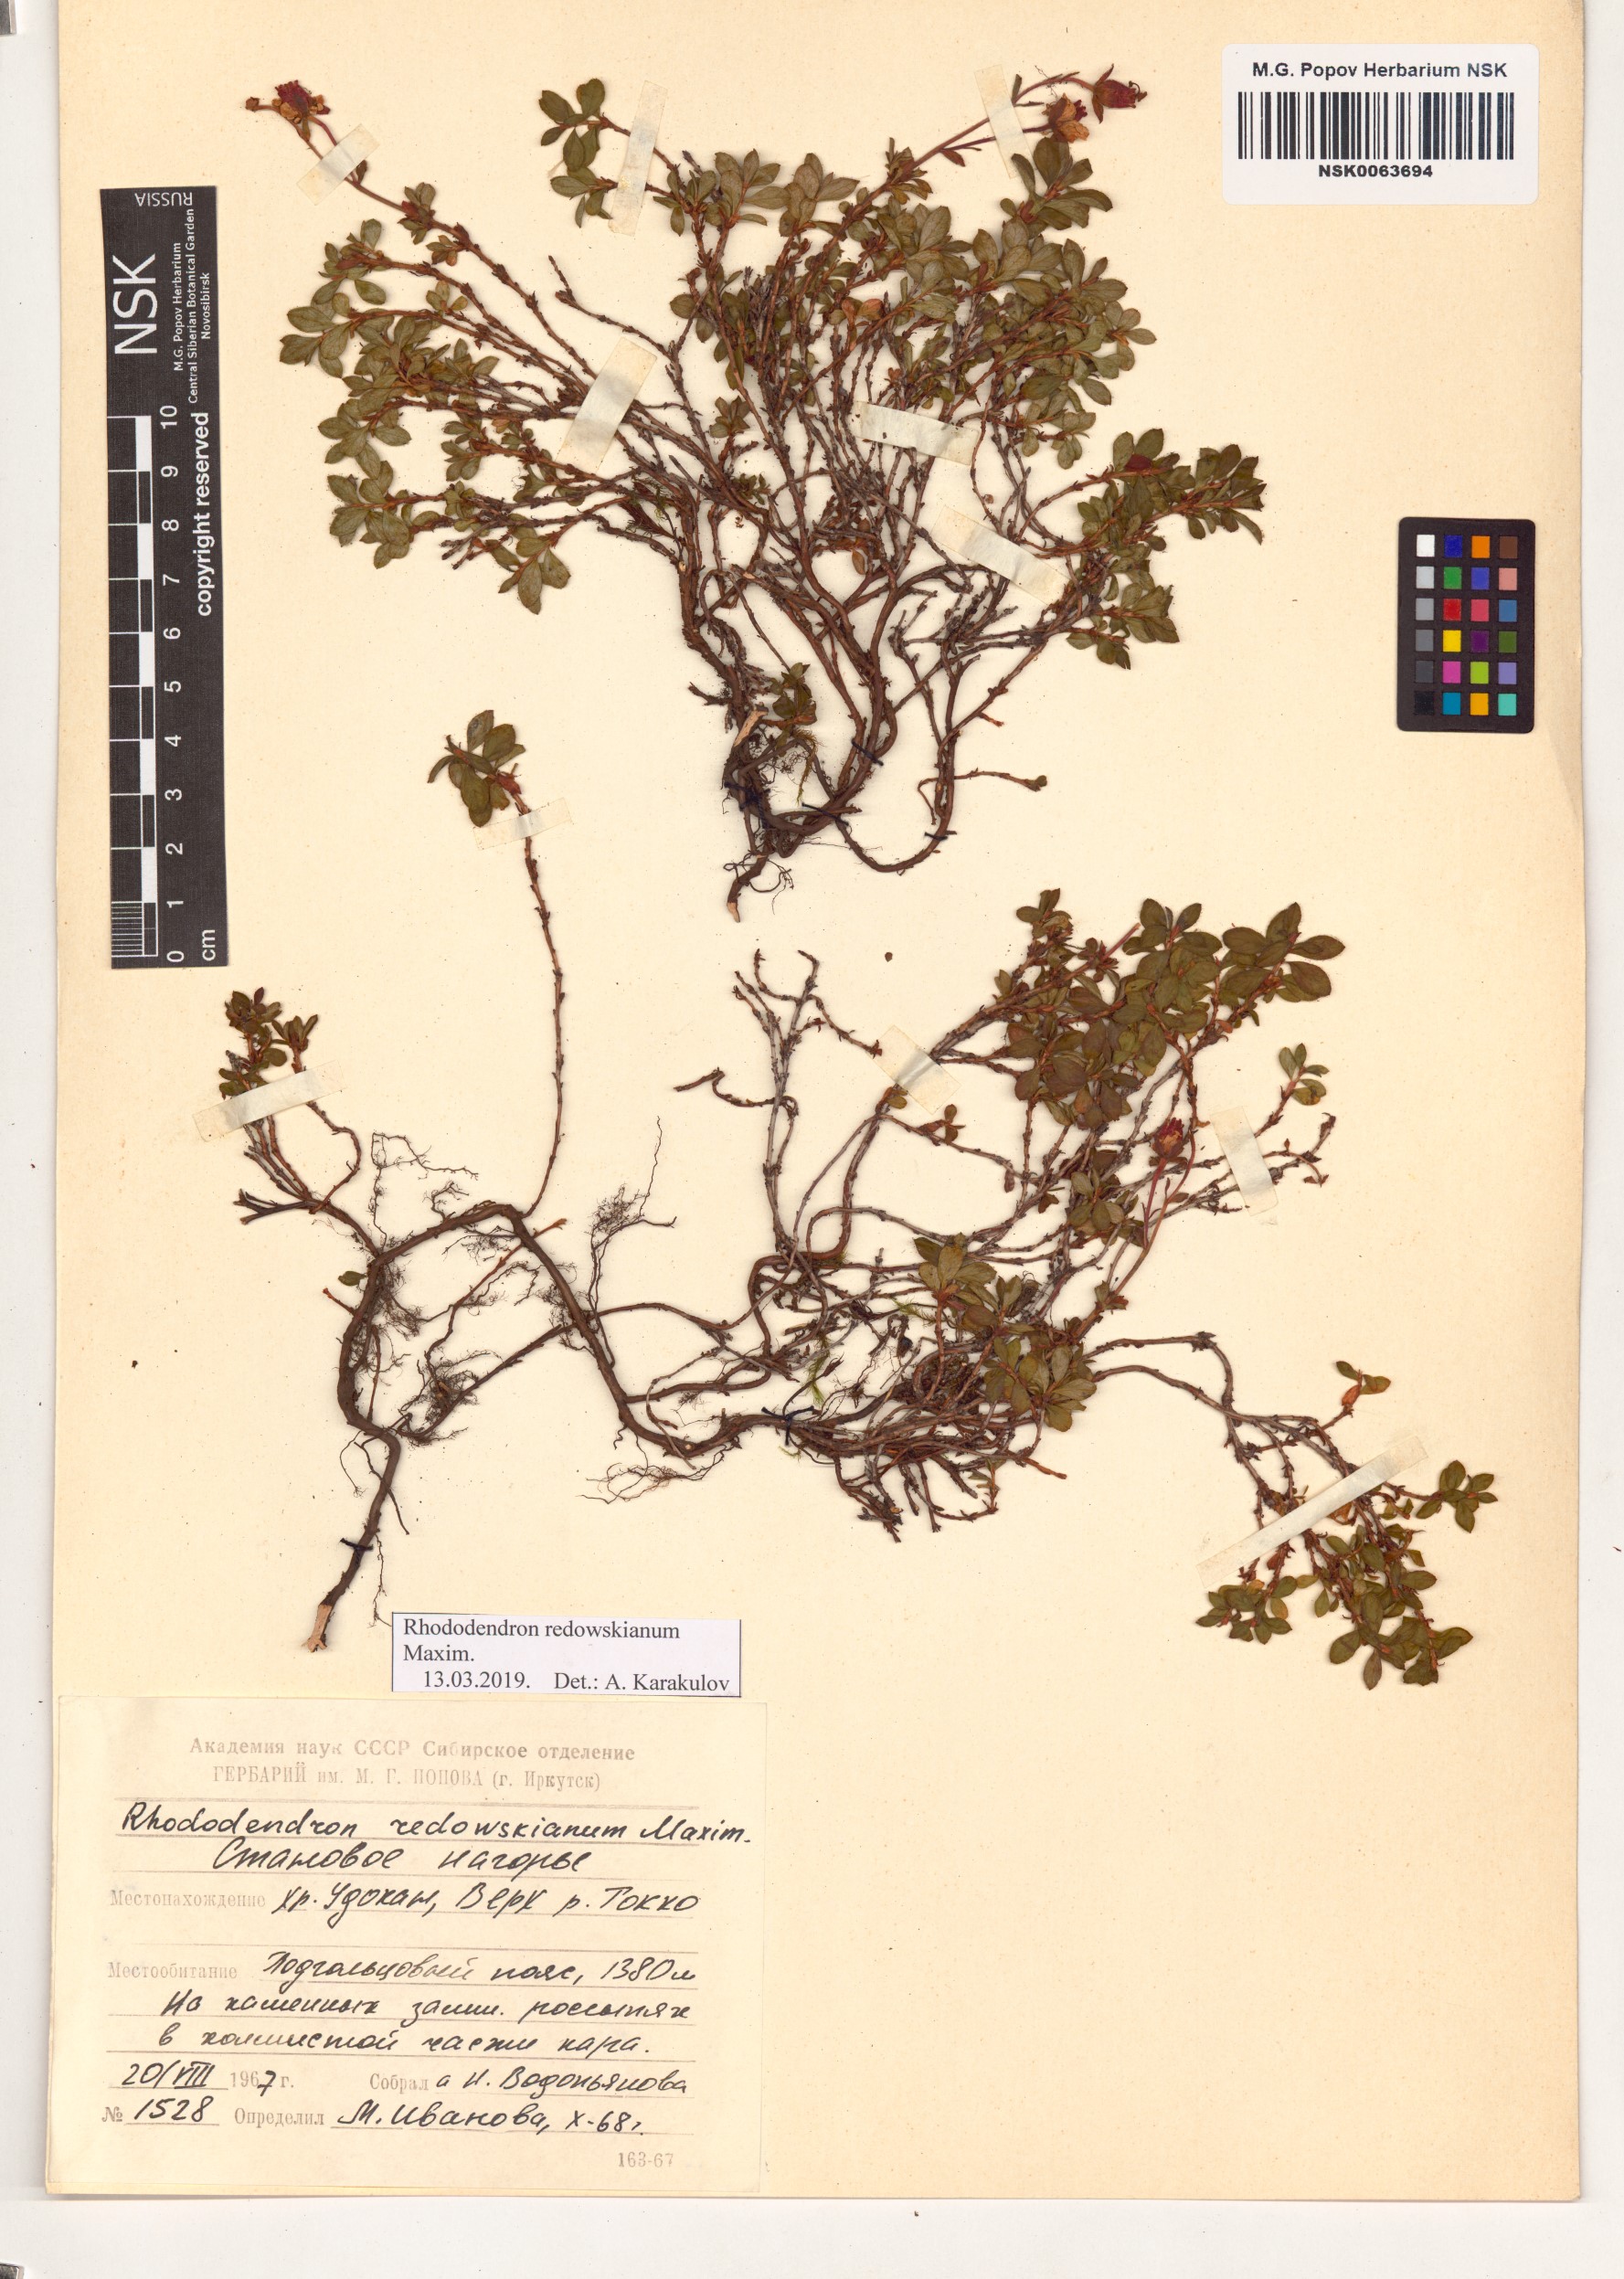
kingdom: Plantae
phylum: Tracheophyta
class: Magnoliopsida
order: Ericales
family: Ericaceae
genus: Rhododendron
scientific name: Rhododendron redowskianum
